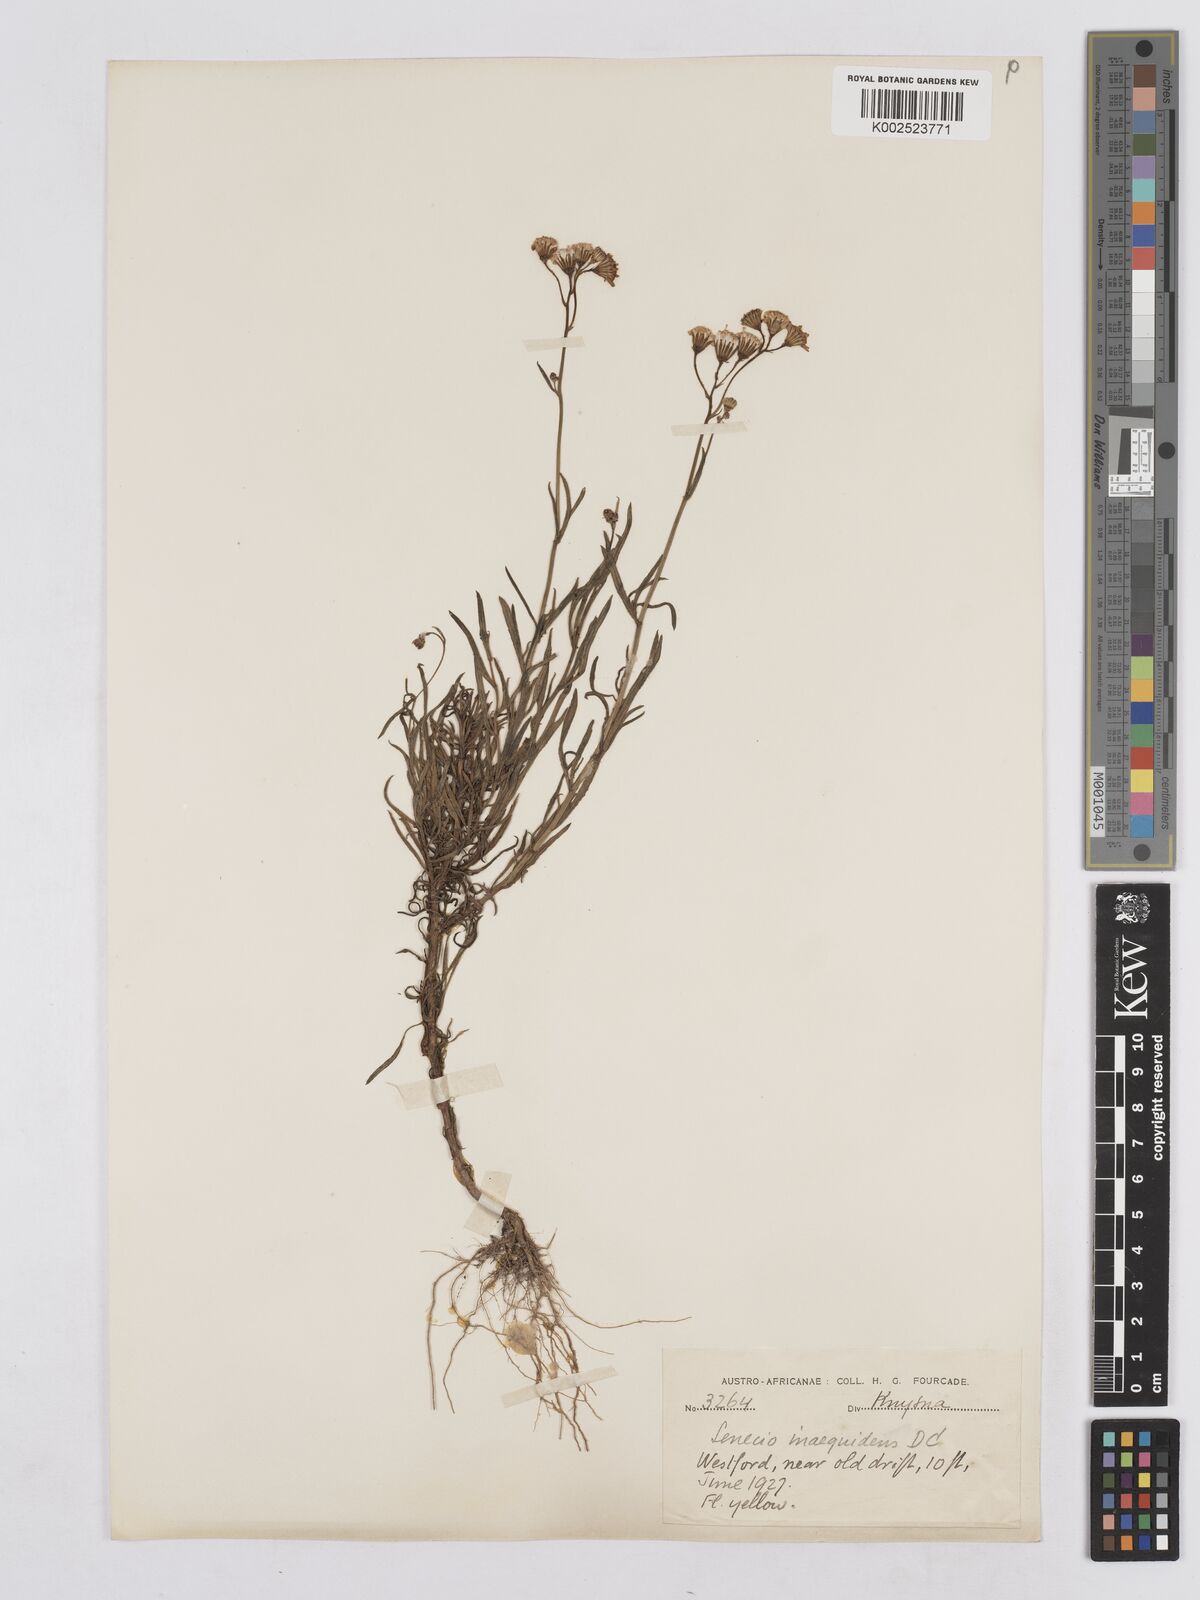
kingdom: Plantae
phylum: Tracheophyta
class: Magnoliopsida
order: Asterales
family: Asteraceae
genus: Senecio
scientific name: Senecio vimineus
